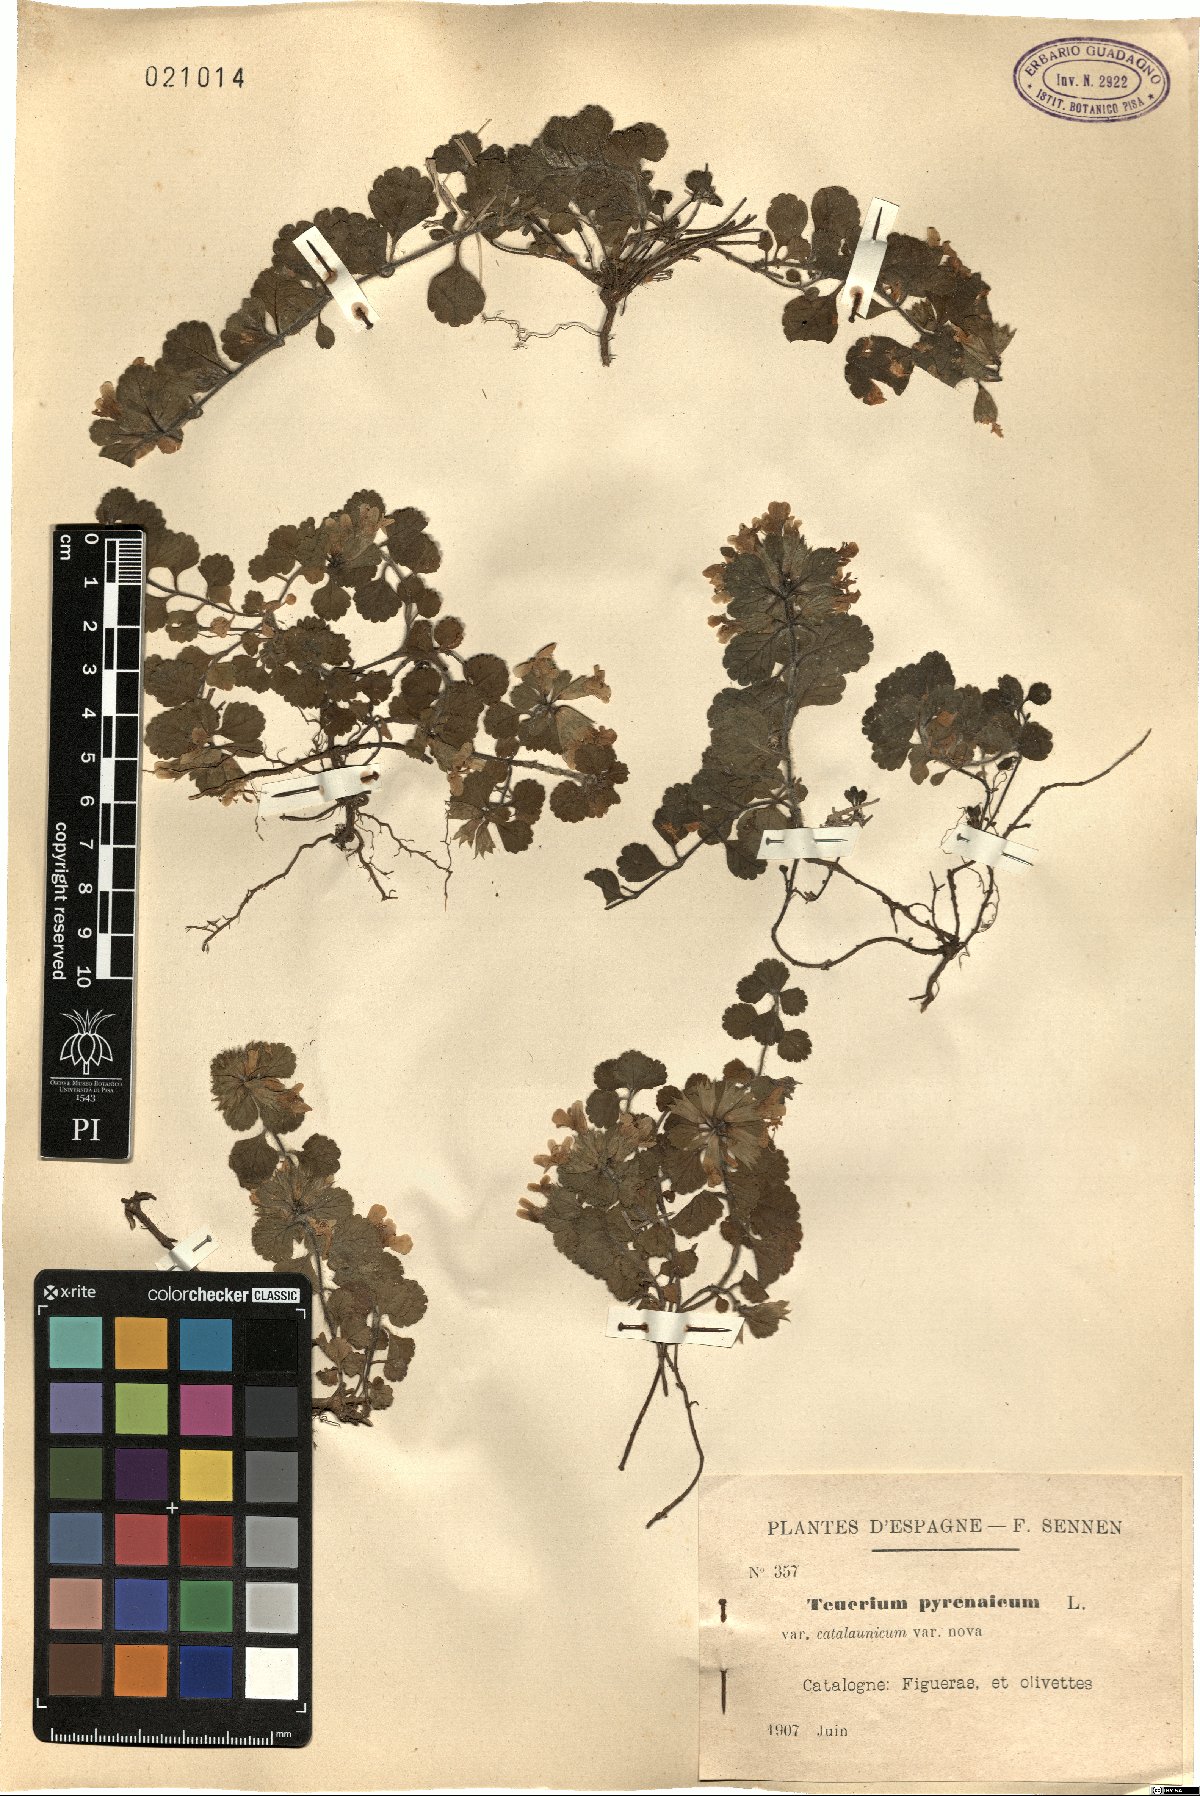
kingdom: Plantae
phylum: Tracheophyta
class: Magnoliopsida
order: Lamiales
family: Lamiaceae
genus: Teucrium
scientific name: Teucrium pyrenaicum
